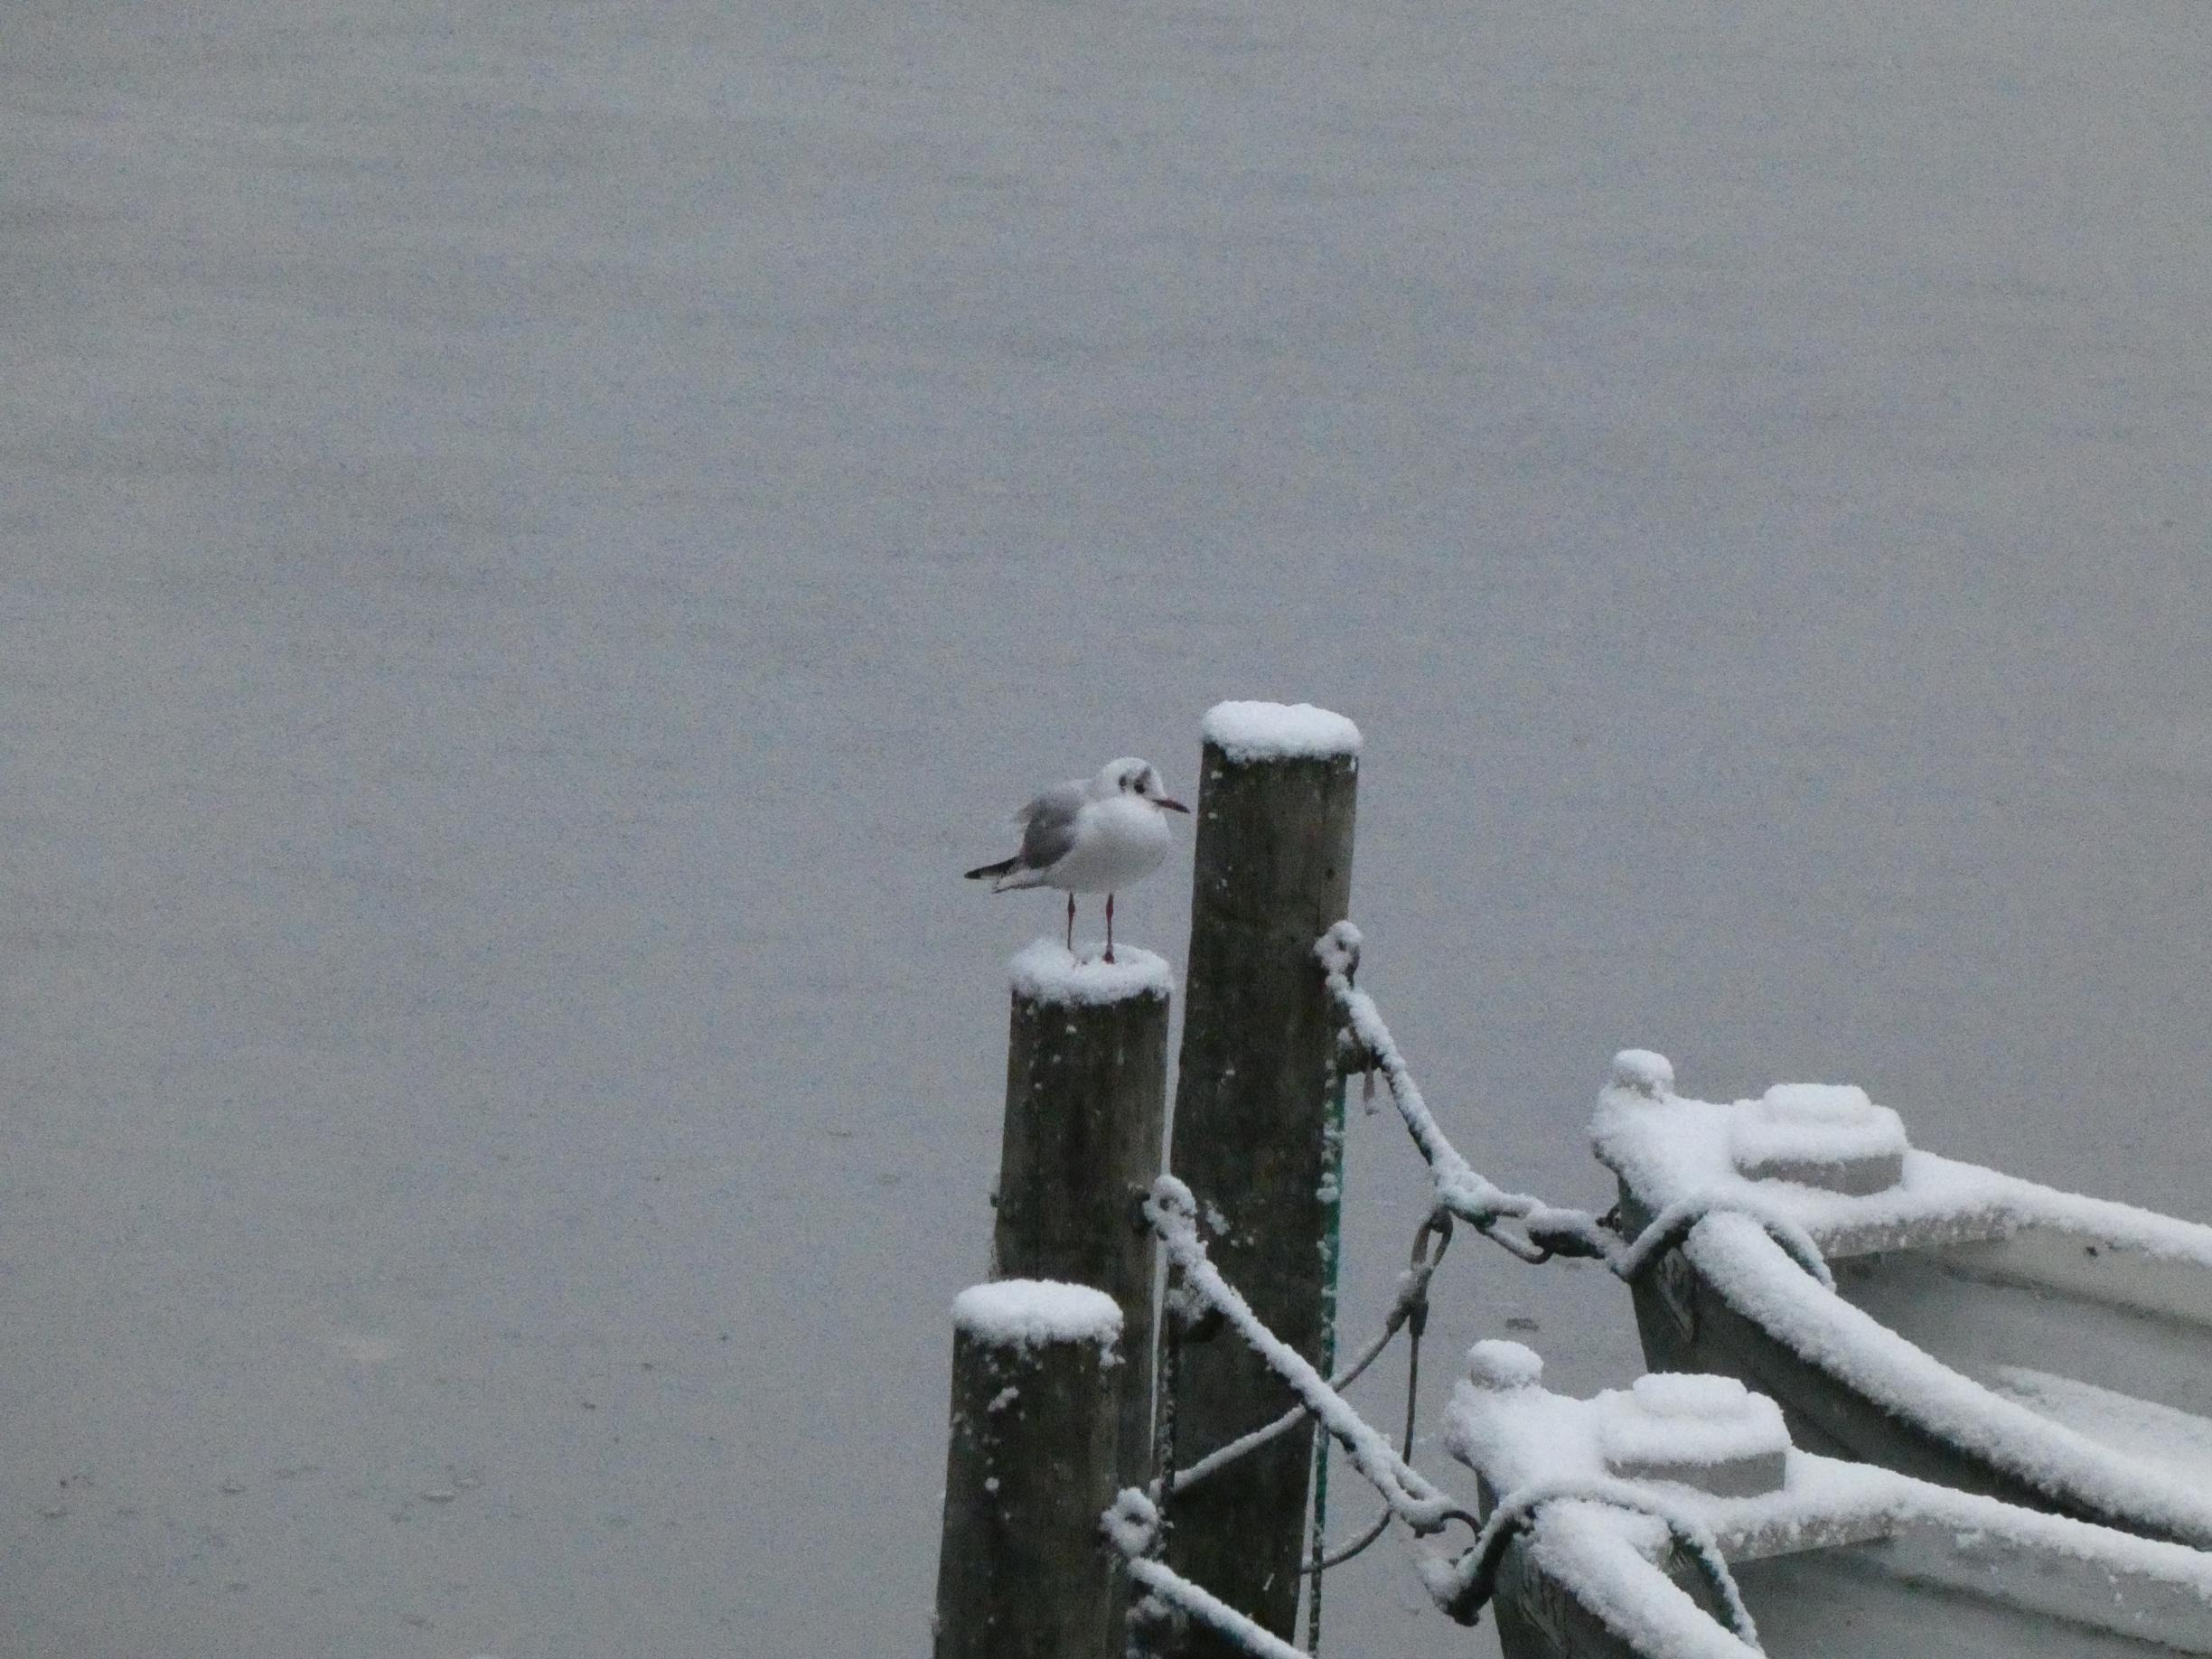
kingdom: Animalia
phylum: Chordata
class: Aves
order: Charadriiformes
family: Laridae
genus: Chroicocephalus
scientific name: Chroicocephalus ridibundus
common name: Hættemåge
